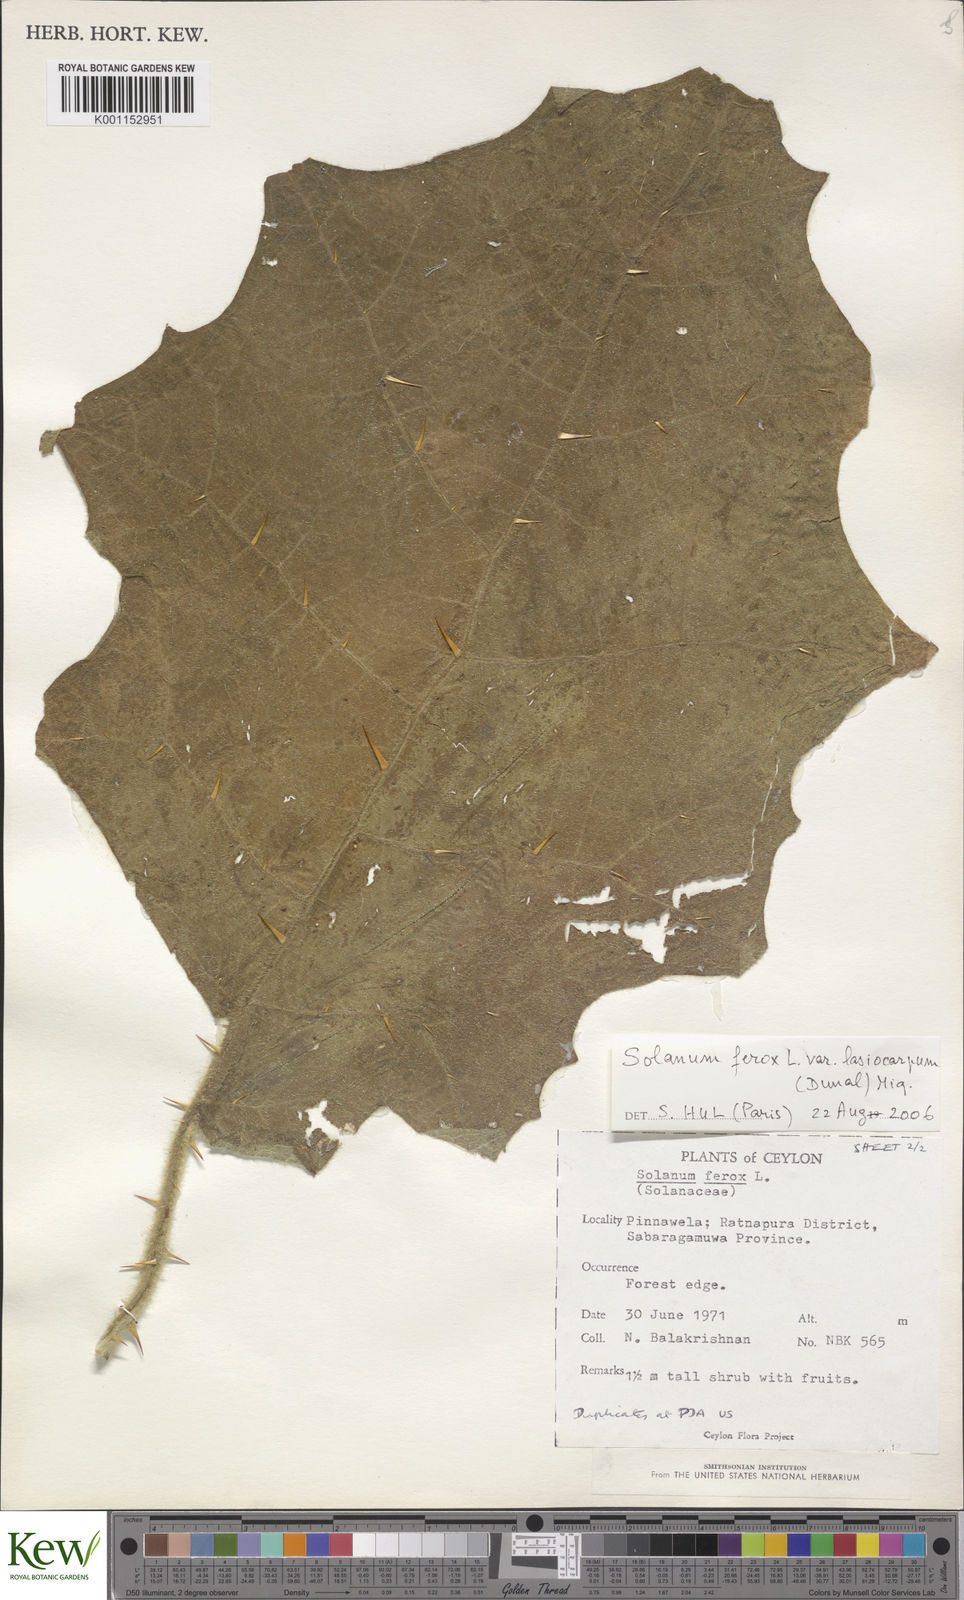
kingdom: Plantae
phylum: Tracheophyta
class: Magnoliopsida
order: Solanales
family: Solanaceae
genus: Solanum
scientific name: Solanum
